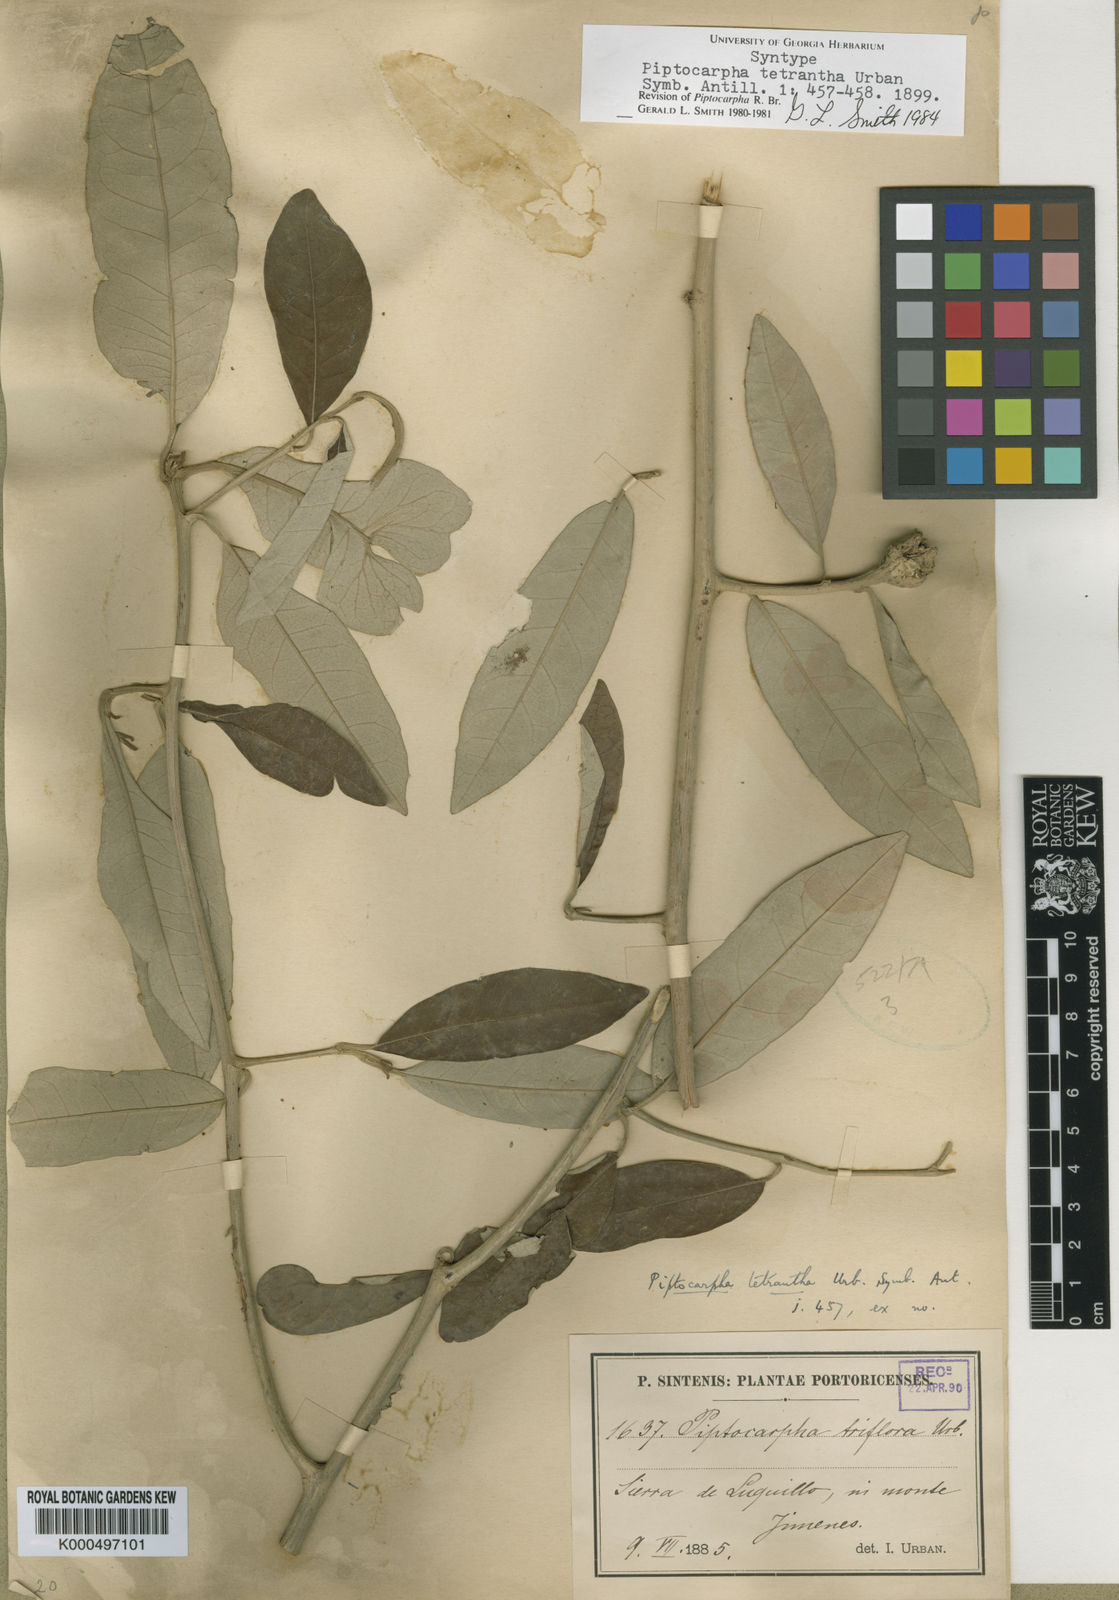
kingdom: Plantae
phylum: Tracheophyta
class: Magnoliopsida
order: Asterales
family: Asteraceae
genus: Piptocarpha
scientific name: Piptocarpha tetrantha
